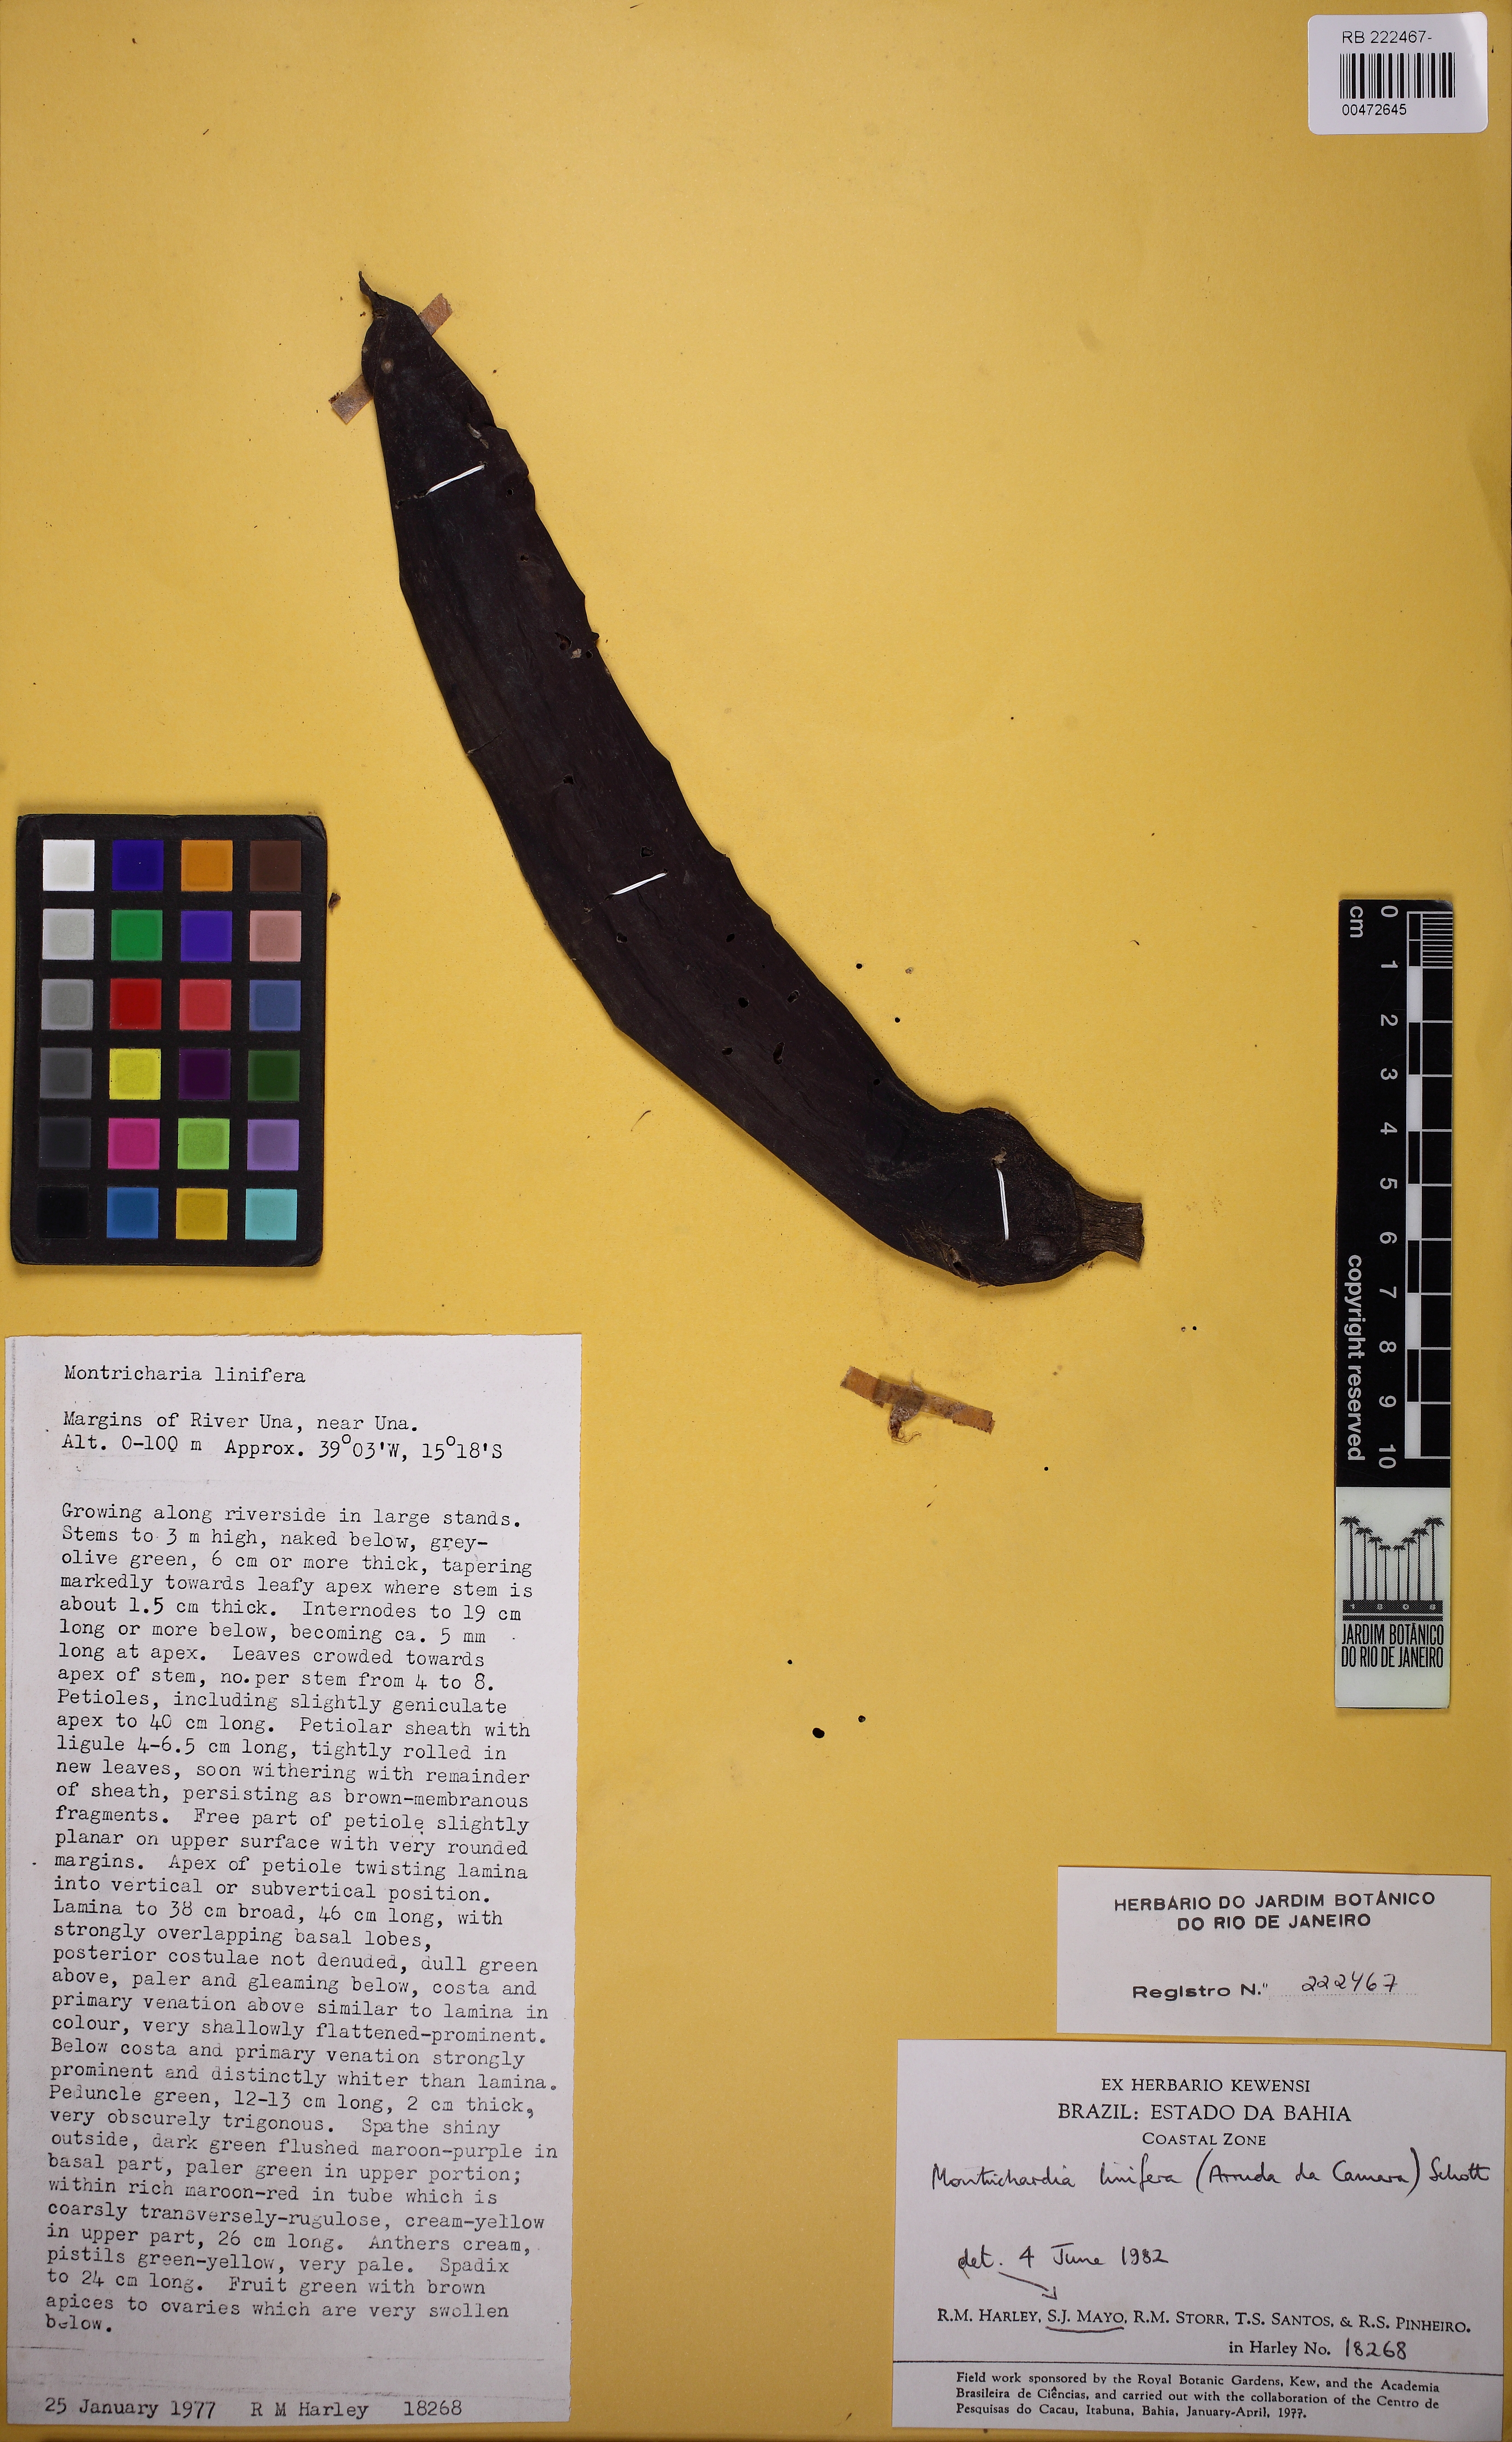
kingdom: Plantae
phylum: Tracheophyta
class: Liliopsida
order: Alismatales
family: Araceae
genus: Montrichardia
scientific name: Montrichardia linifera
